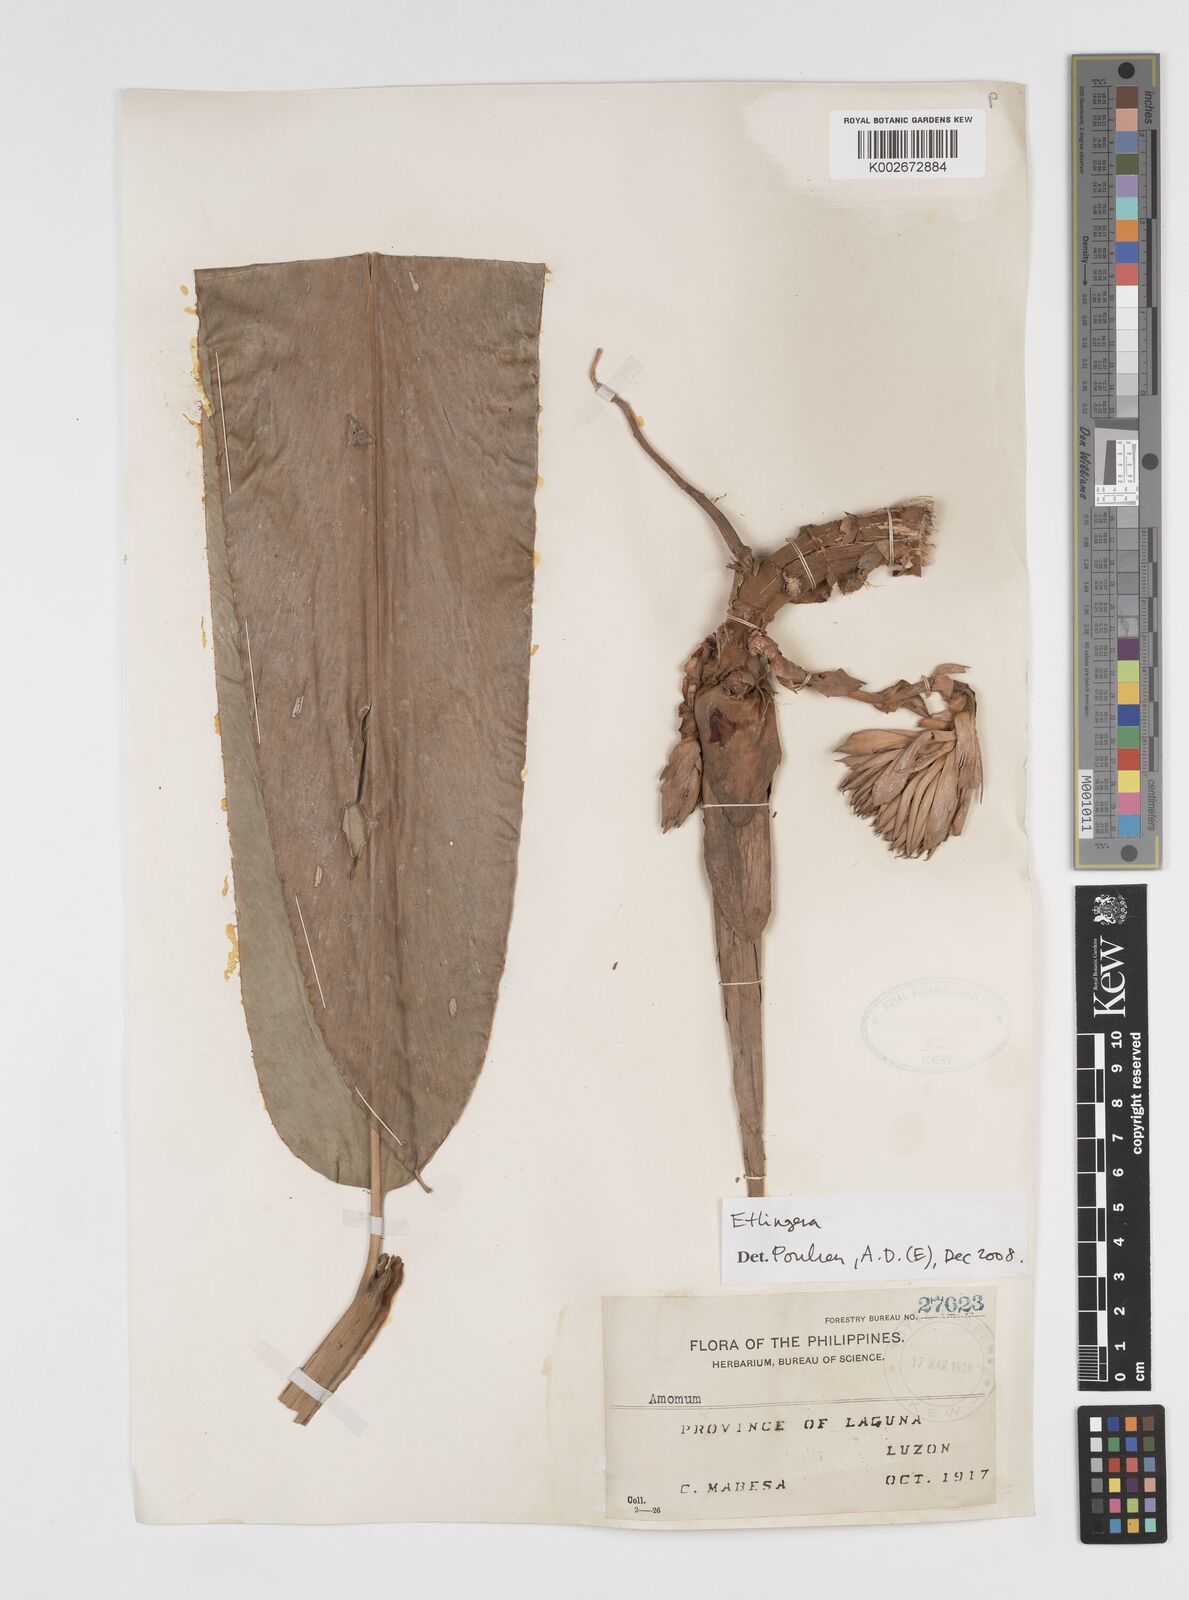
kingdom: Plantae
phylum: Tracheophyta
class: Liliopsida
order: Zingiberales
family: Zingiberaceae
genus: Etlingera
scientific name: Etlingera
